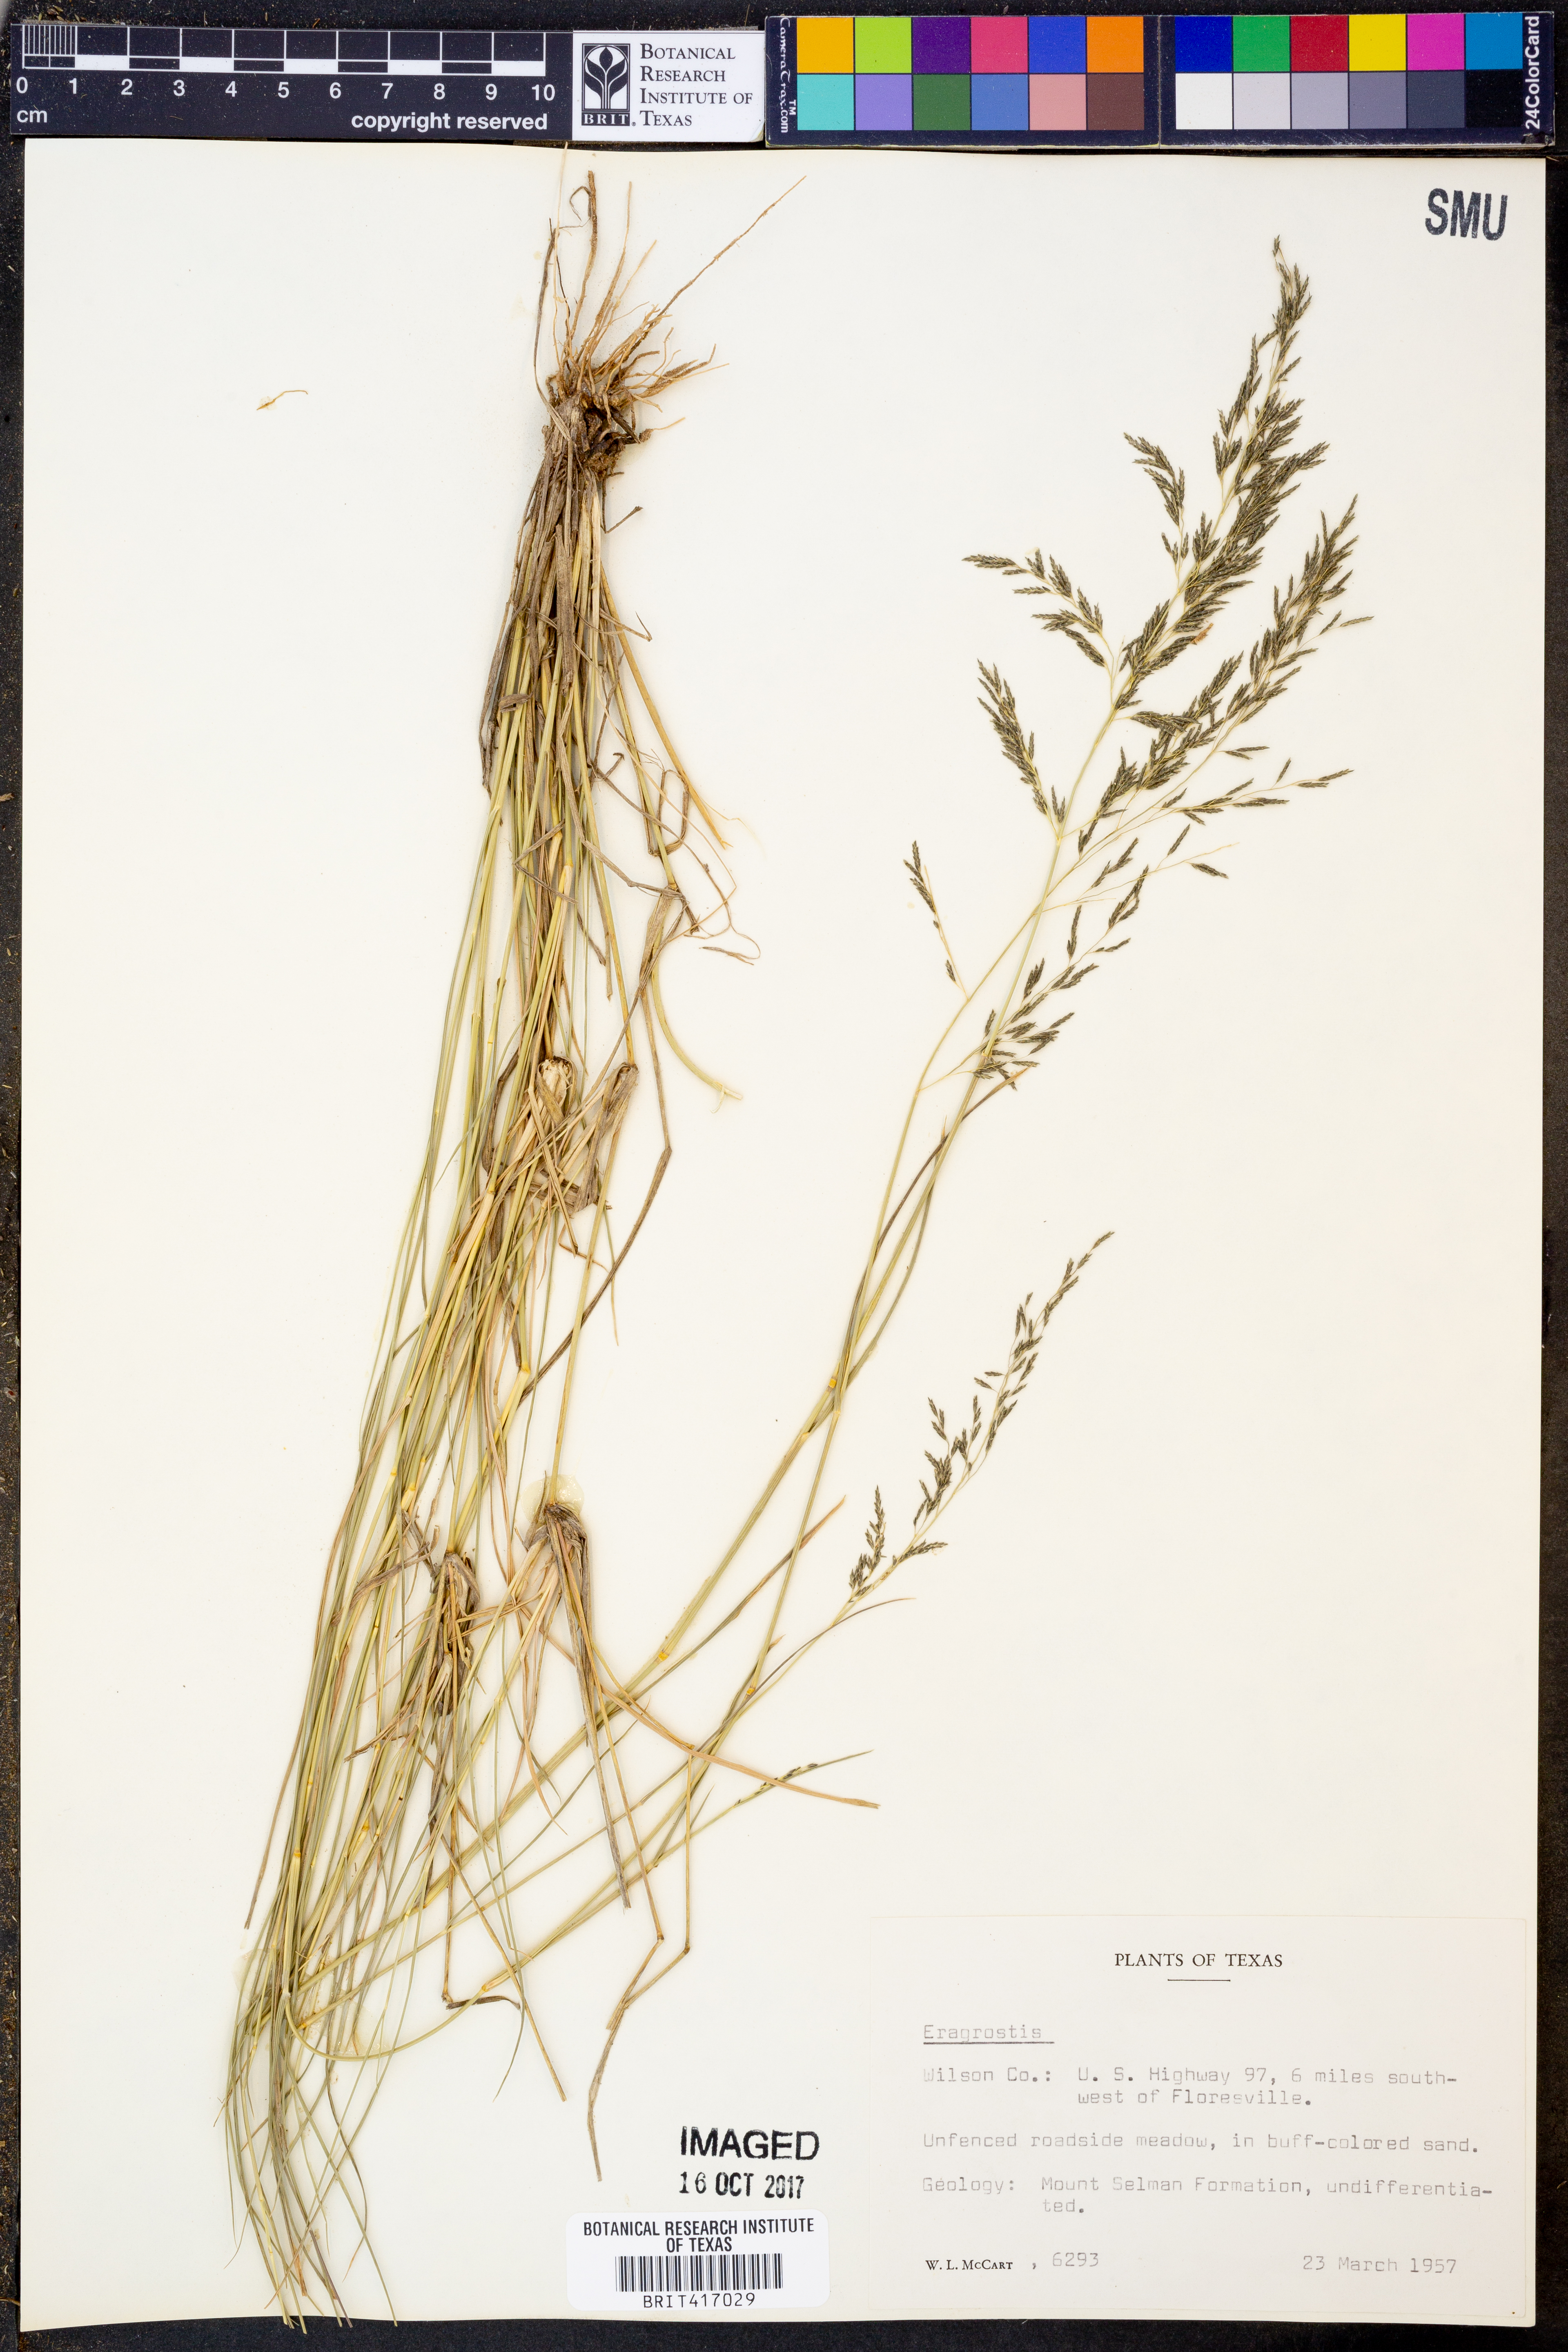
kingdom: Plantae
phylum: Tracheophyta
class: Liliopsida
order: Poales
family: Poaceae
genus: Eragrostis
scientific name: Eragrostis
